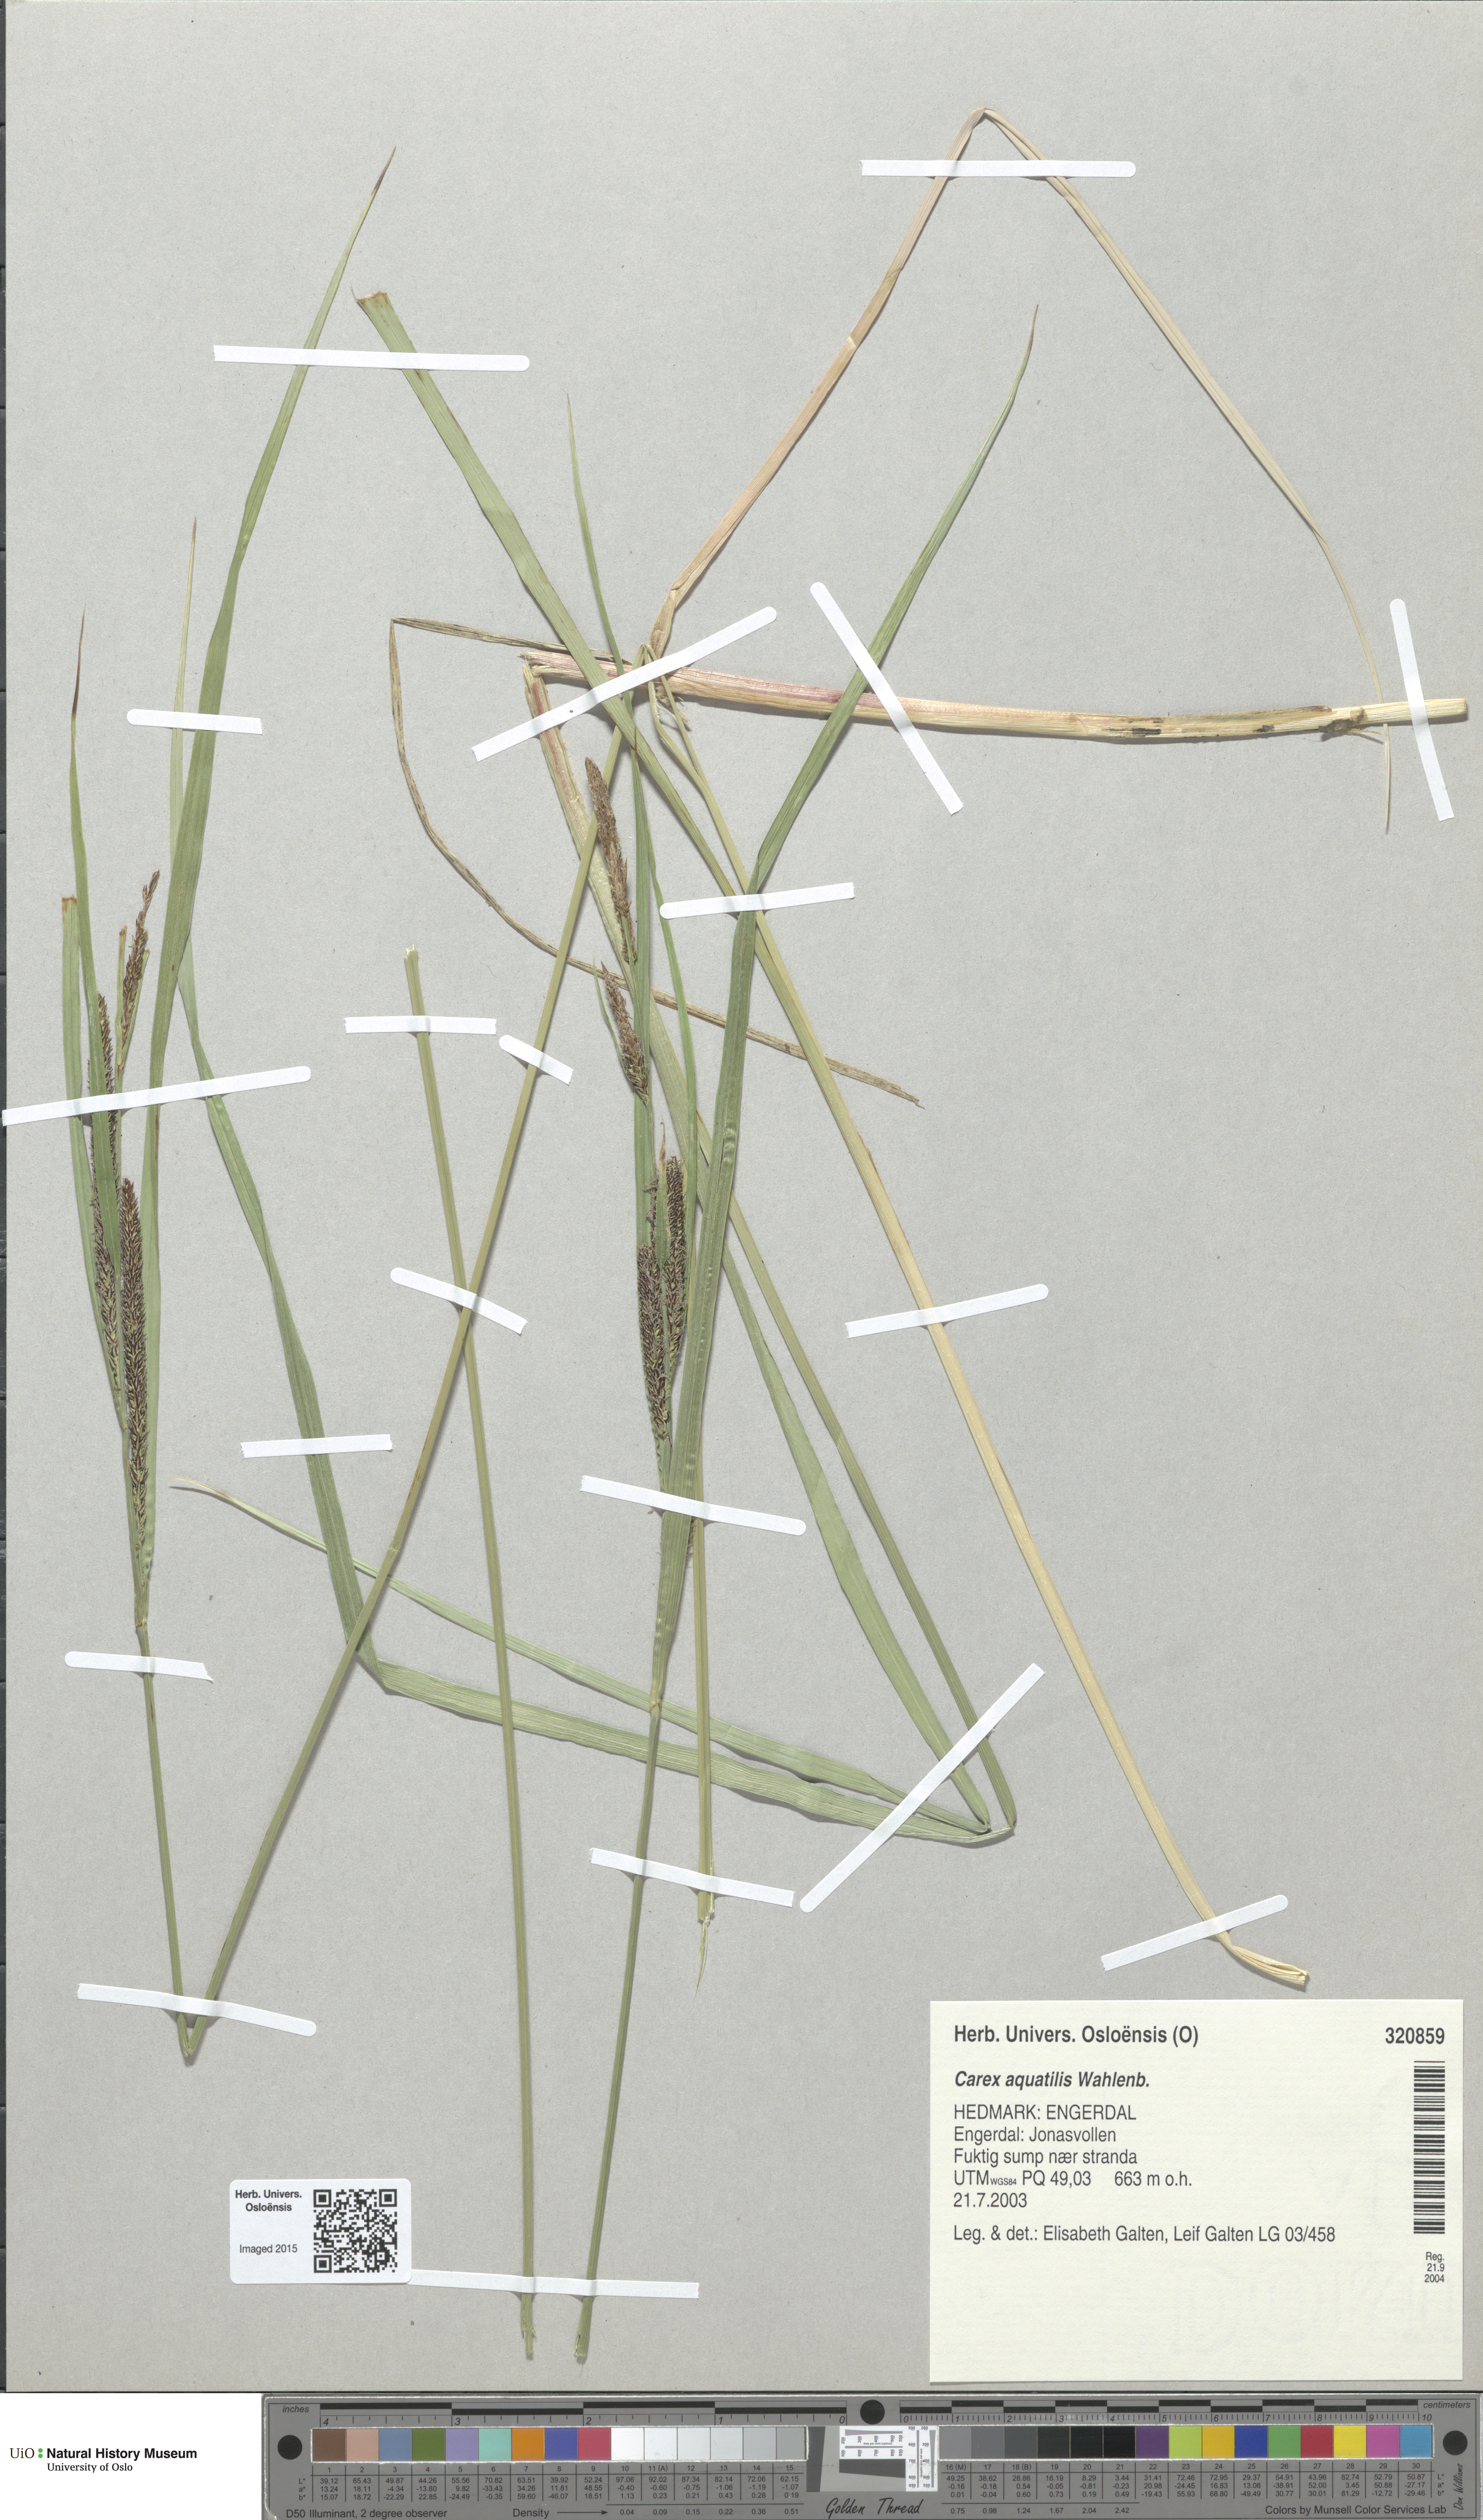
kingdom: Plantae
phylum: Tracheophyta
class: Liliopsida
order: Poales
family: Cyperaceae
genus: Carex
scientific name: Carex aquatilis
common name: Water sedge
